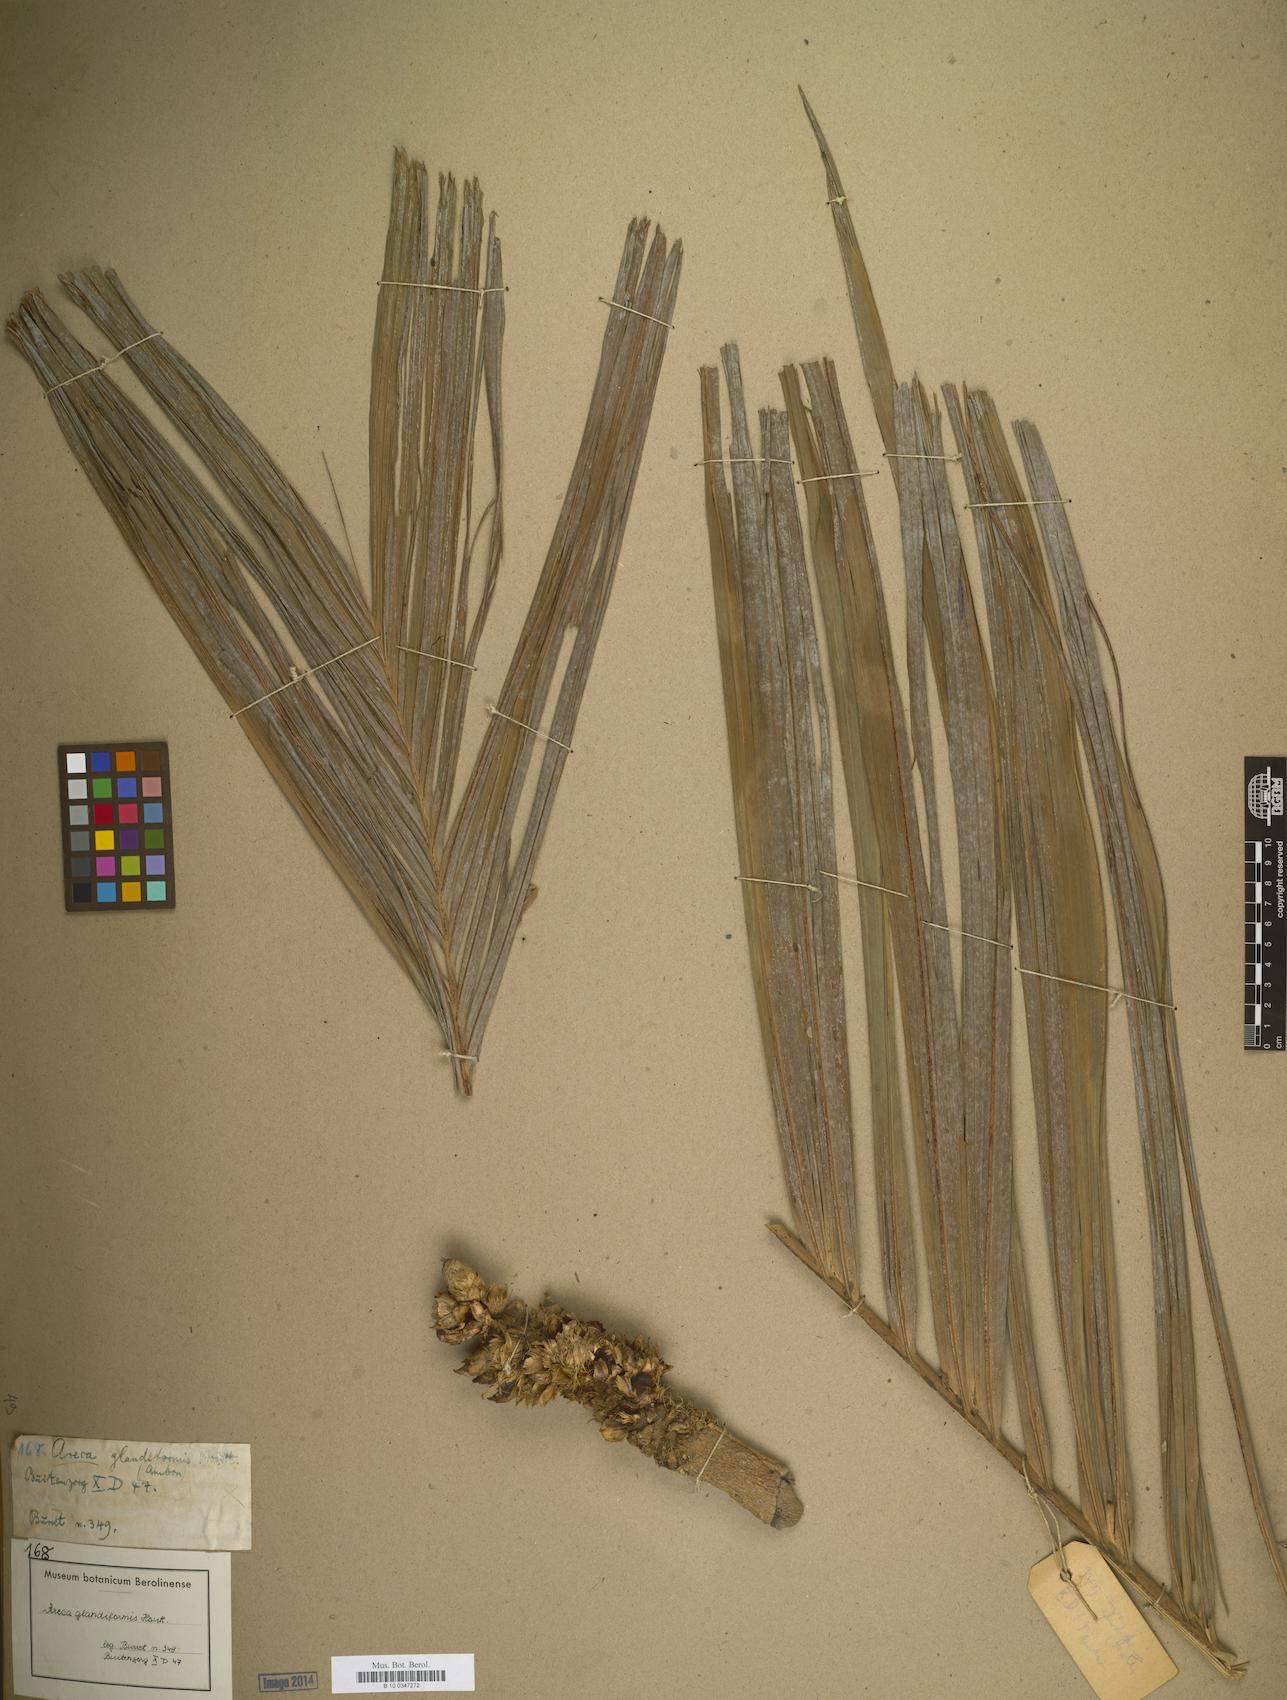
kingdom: Plantae
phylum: Tracheophyta
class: Liliopsida
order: Arecales
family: Arecaceae
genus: Areca
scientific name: Areca macrocalyx
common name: Highland betel-nut palm
